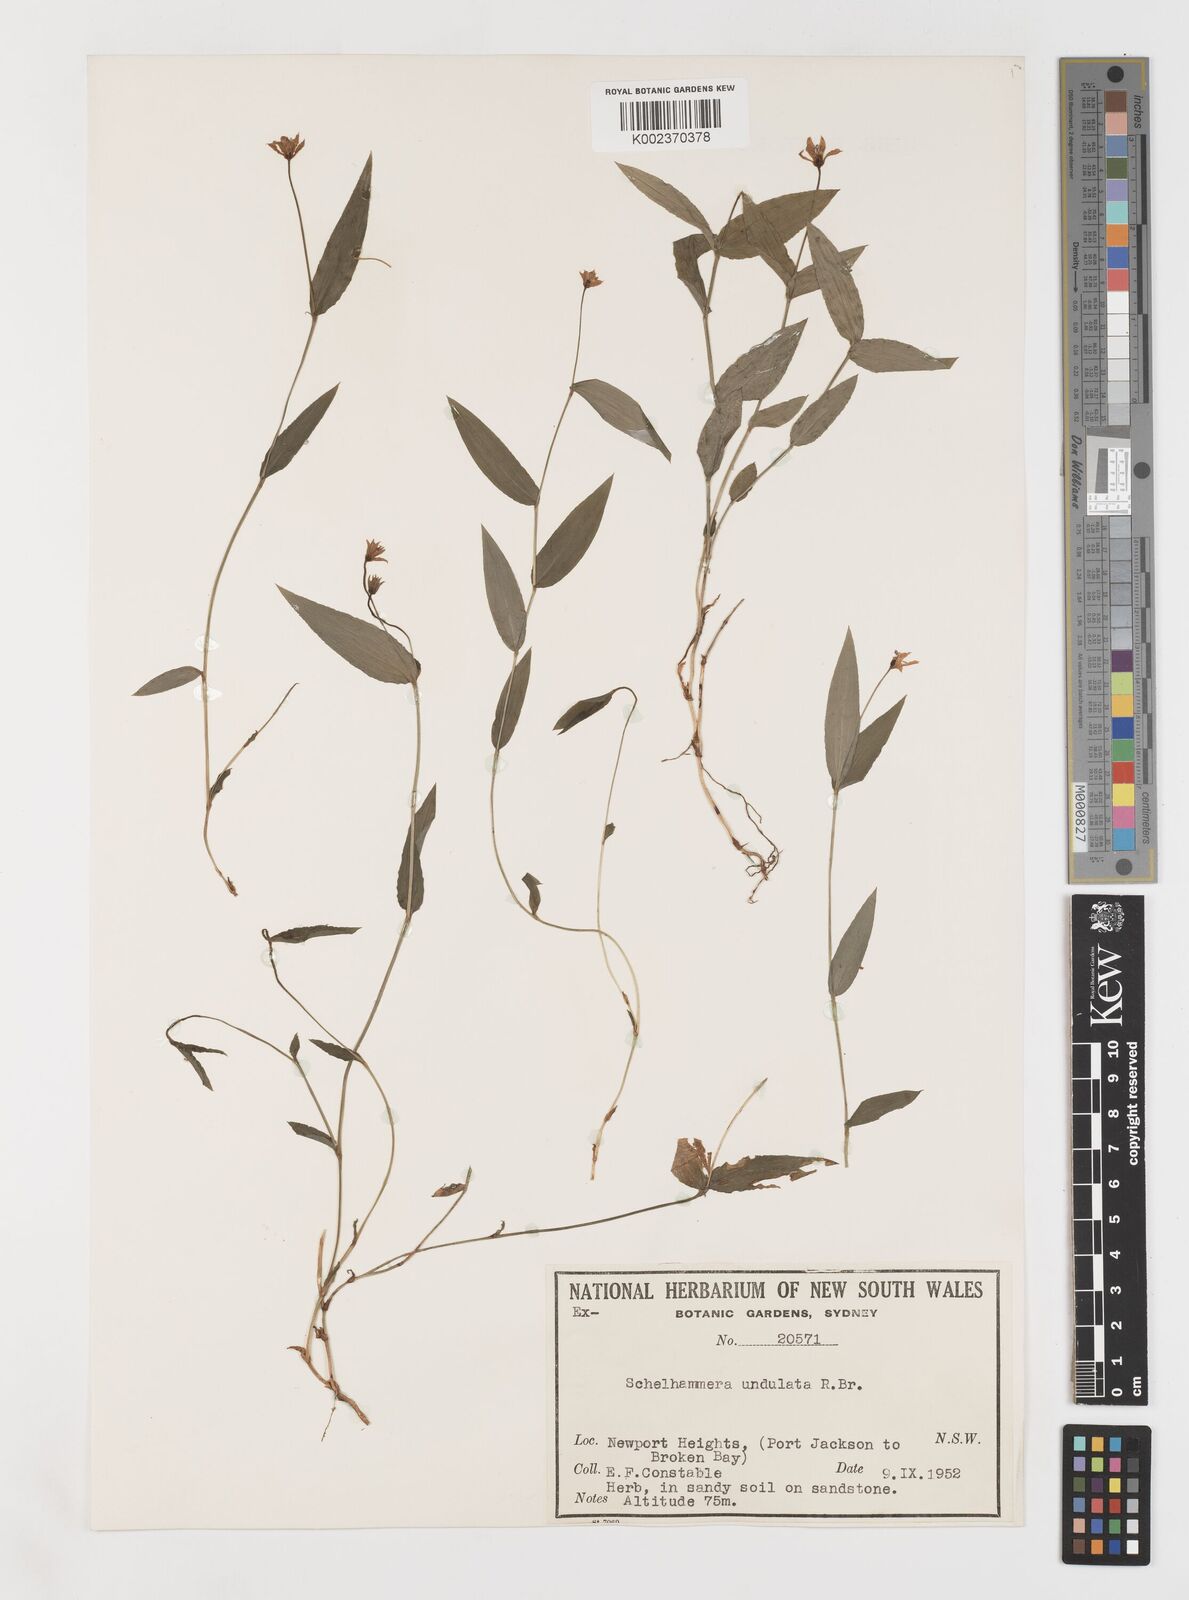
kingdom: Plantae
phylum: Tracheophyta
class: Liliopsida
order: Liliales
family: Colchicaceae
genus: Schelhammera
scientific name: Schelhammera undulata
